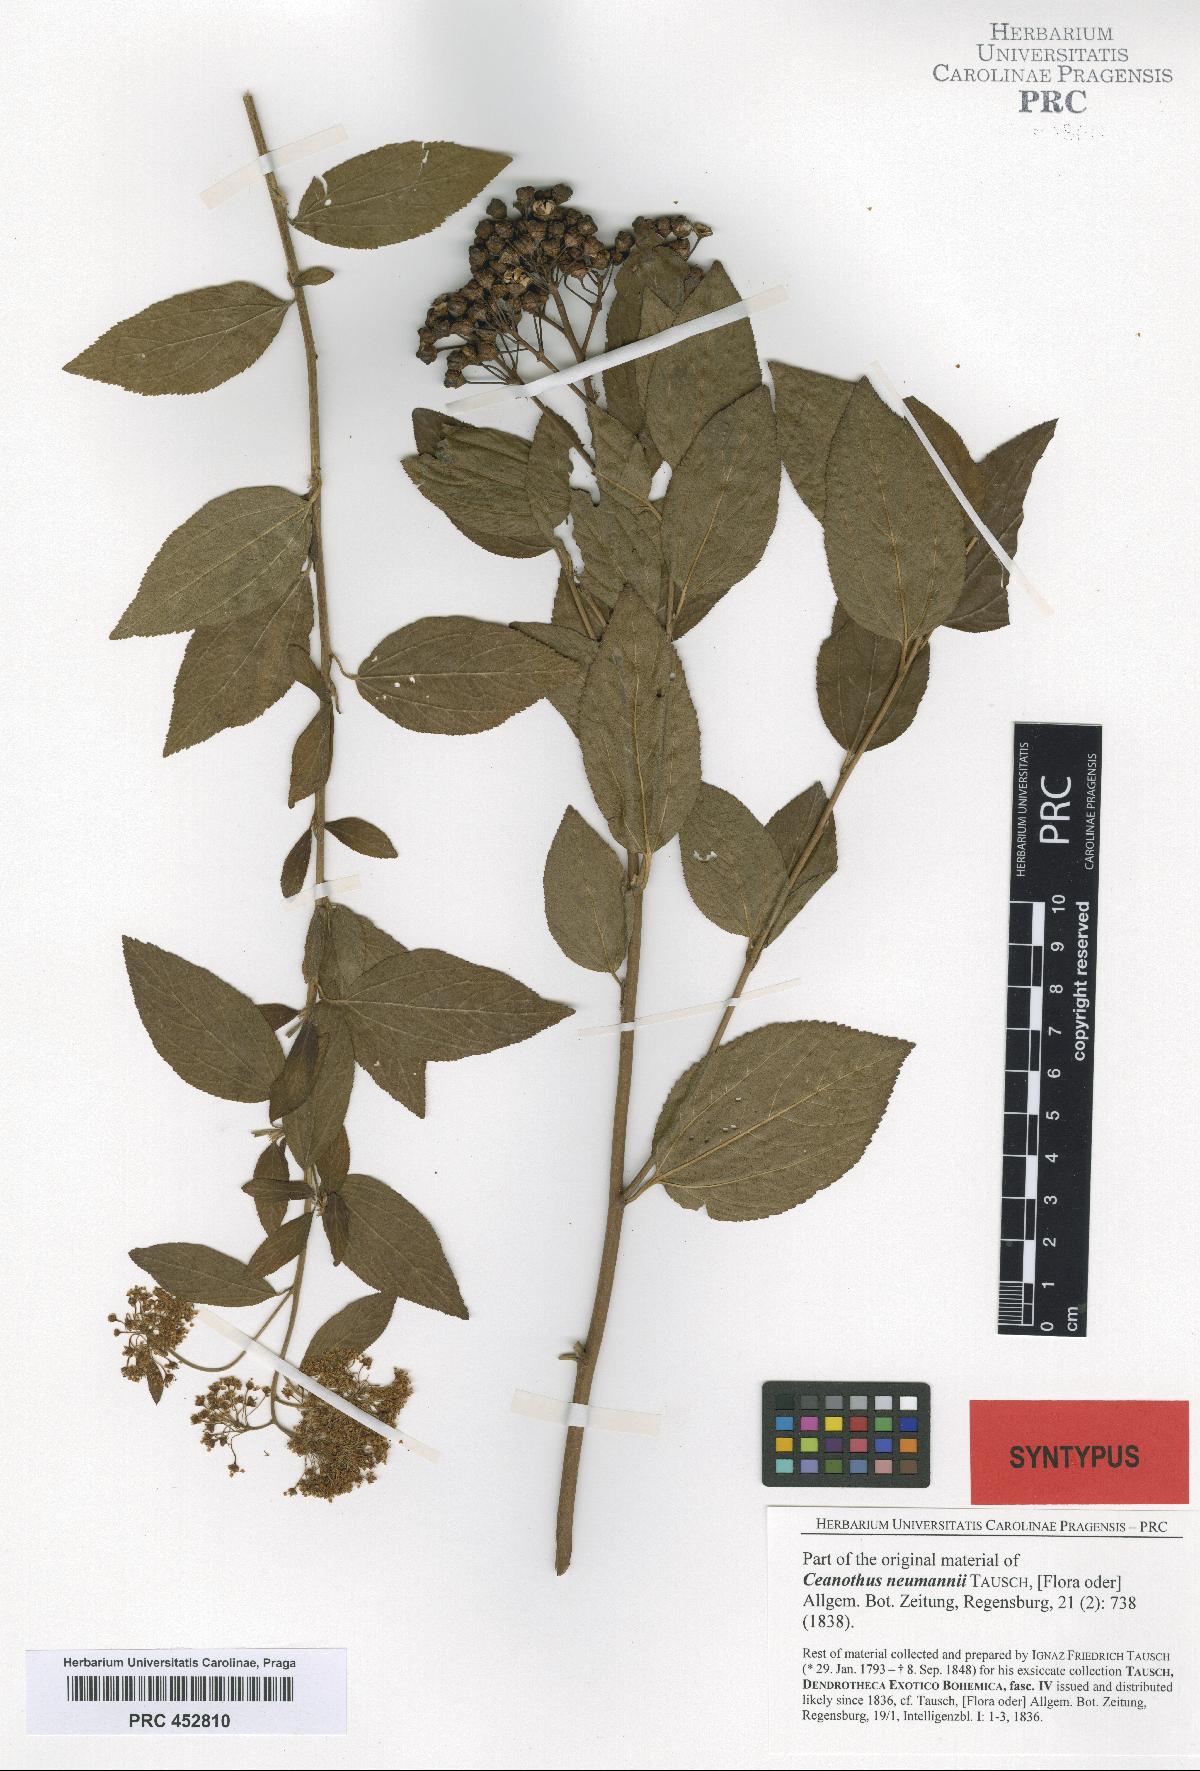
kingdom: Plantae
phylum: Tracheophyta
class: Magnoliopsida
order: Rosales
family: Rhamnaceae
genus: Ceanothus
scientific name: Ceanothus neumannii
